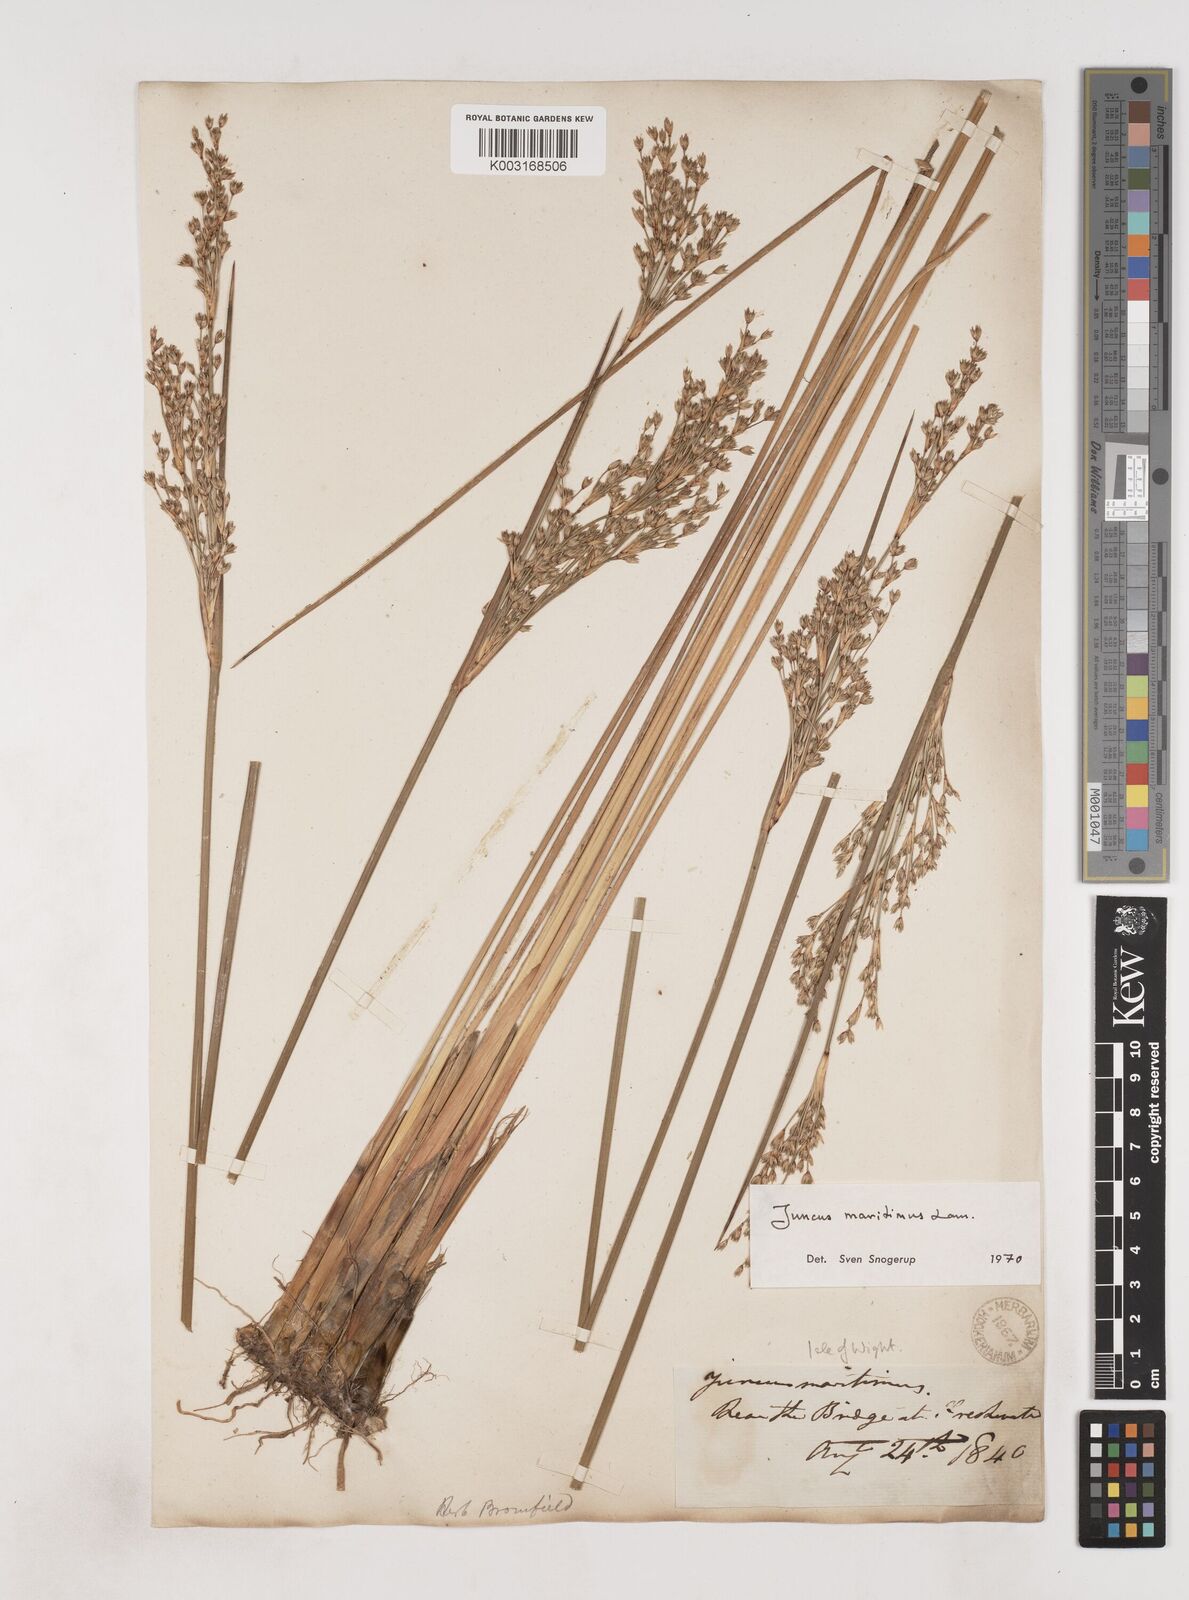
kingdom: Plantae
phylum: Tracheophyta
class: Liliopsida
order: Poales
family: Juncaceae
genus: Juncus
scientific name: Juncus maritimus
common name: Sea rush
